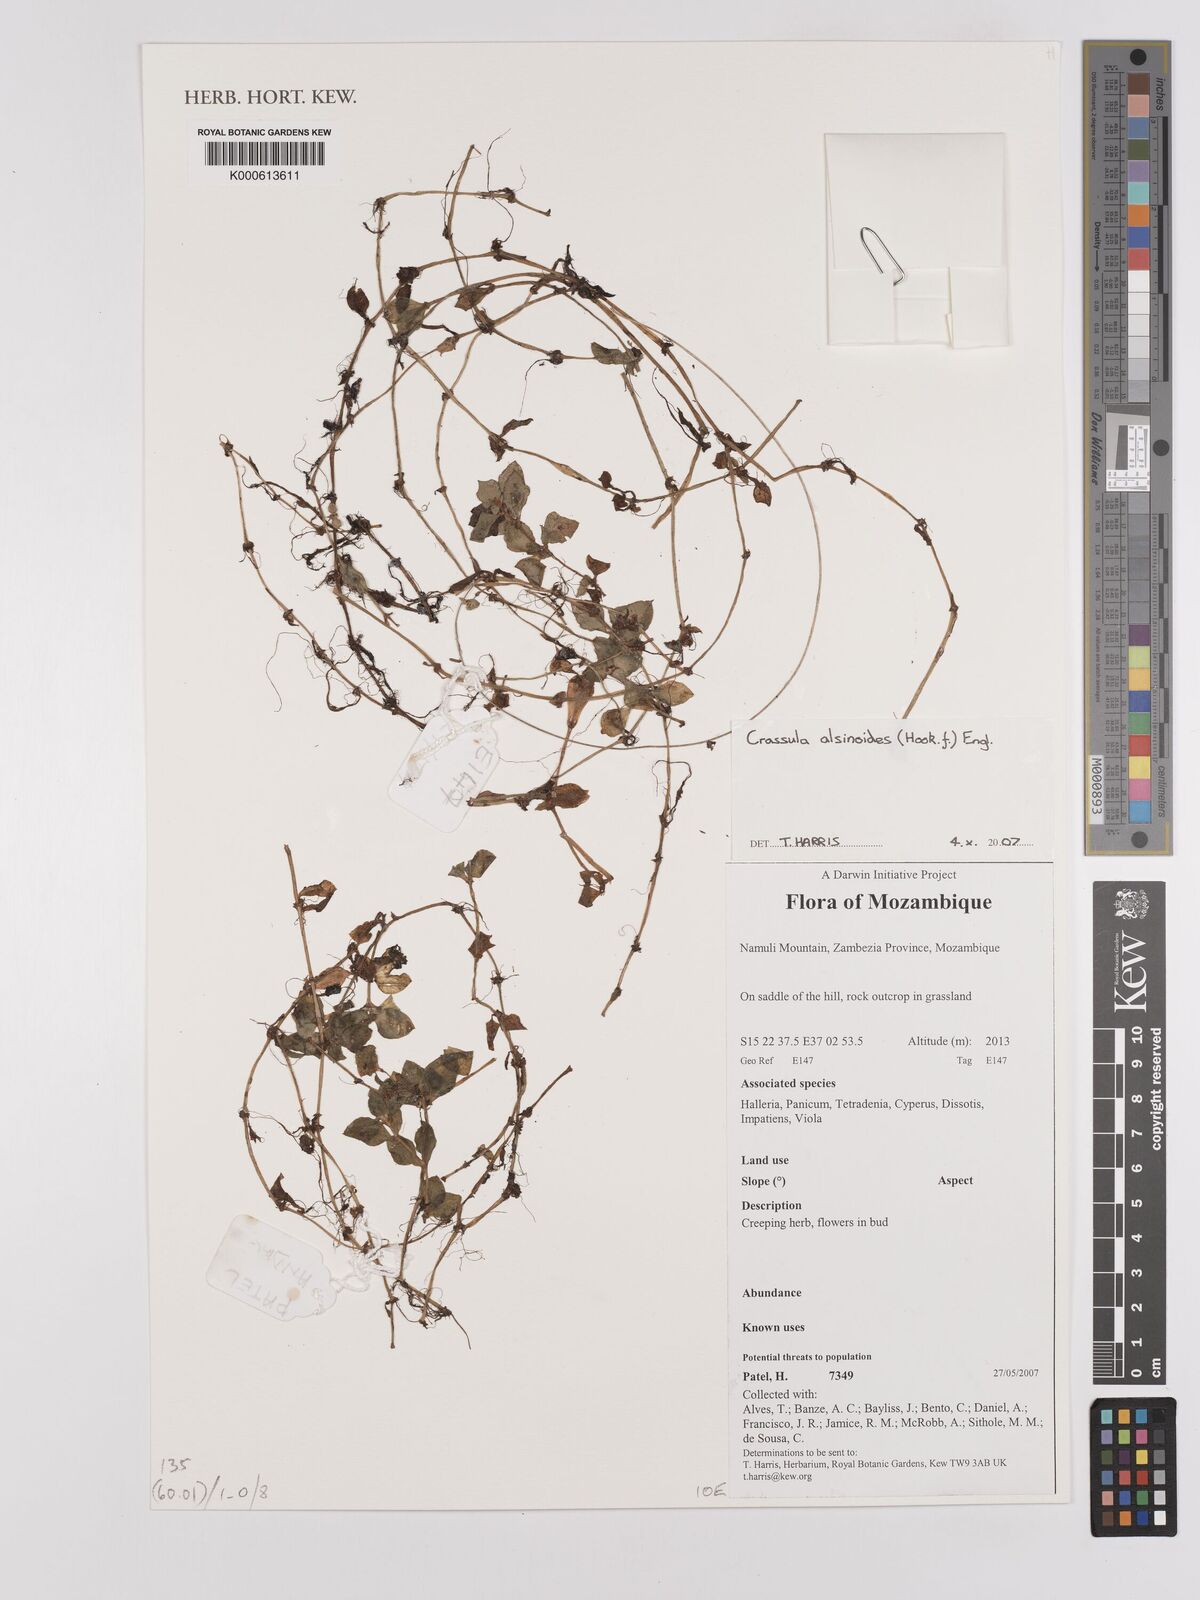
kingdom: Plantae
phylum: Tracheophyta
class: Magnoliopsida
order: Saxifragales
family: Crassulaceae
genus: Crassula
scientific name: Crassula alsinoides
